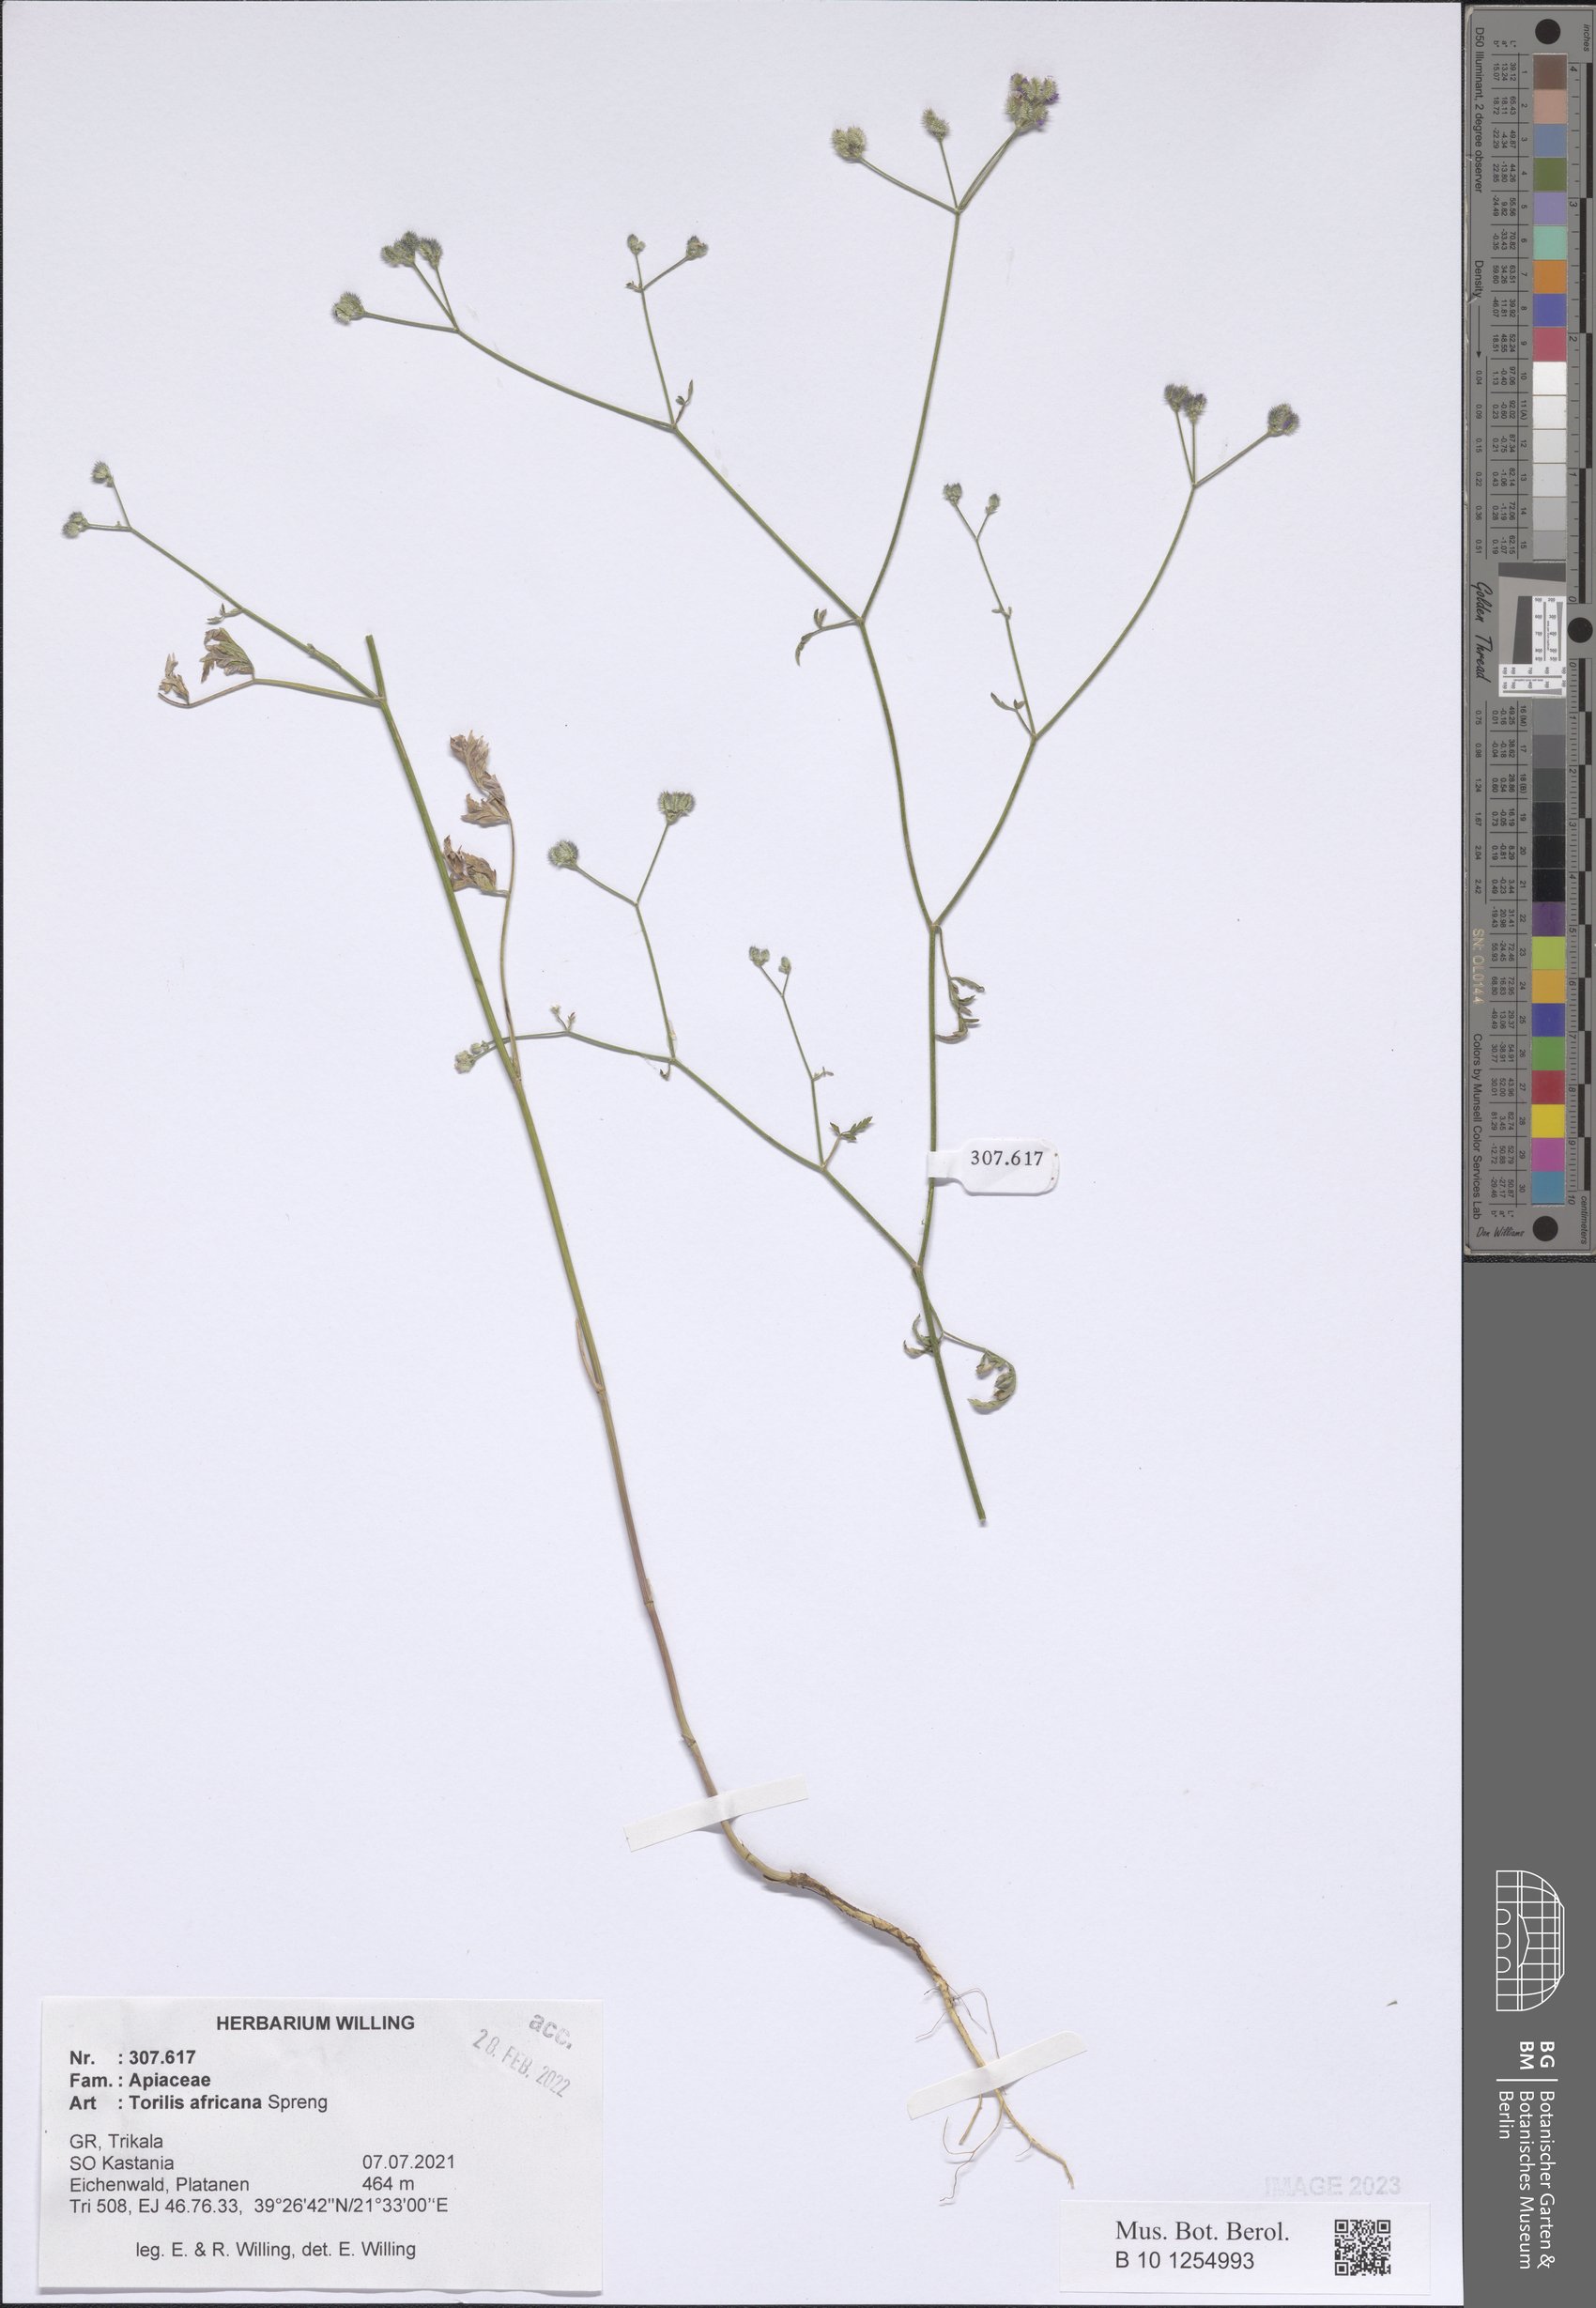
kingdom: Plantae
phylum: Tracheophyta
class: Magnoliopsida
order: Apiales
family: Apiaceae
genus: Torilis
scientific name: Torilis africana
